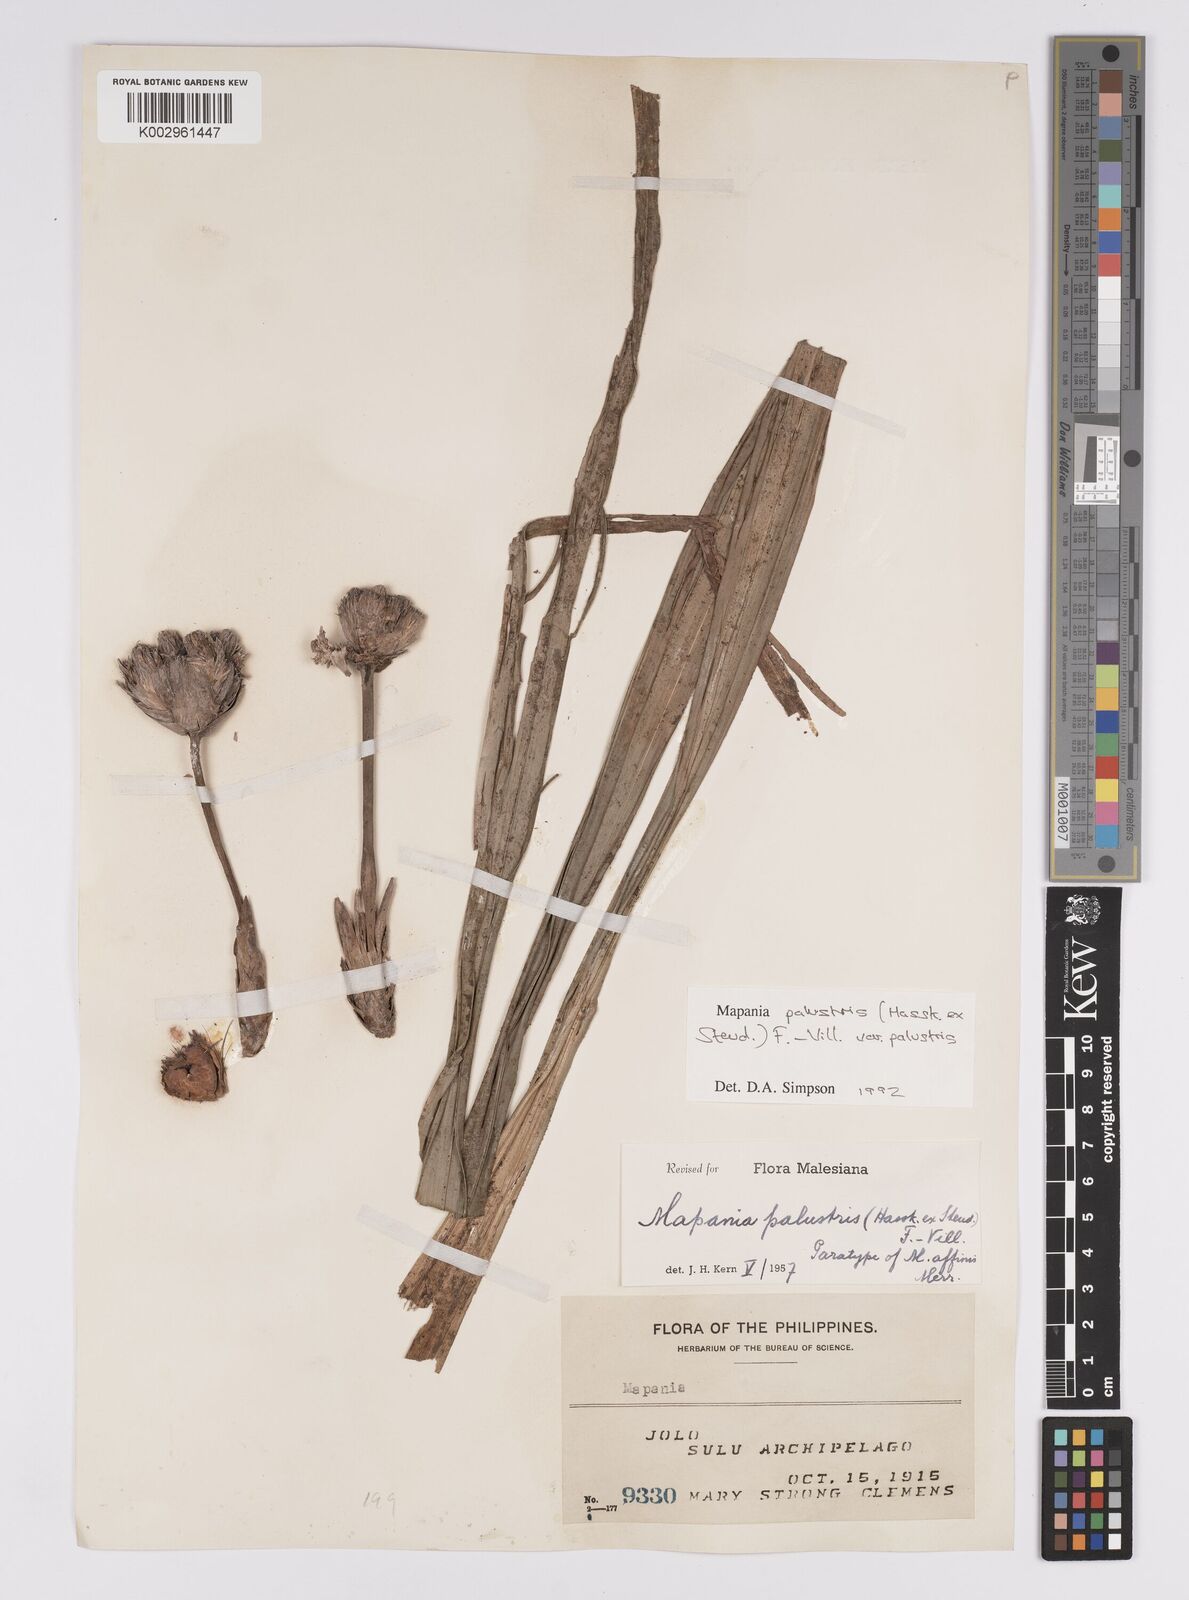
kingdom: Plantae
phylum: Tracheophyta
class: Liliopsida
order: Poales
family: Cyperaceae
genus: Mapania
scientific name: Mapania palustris
